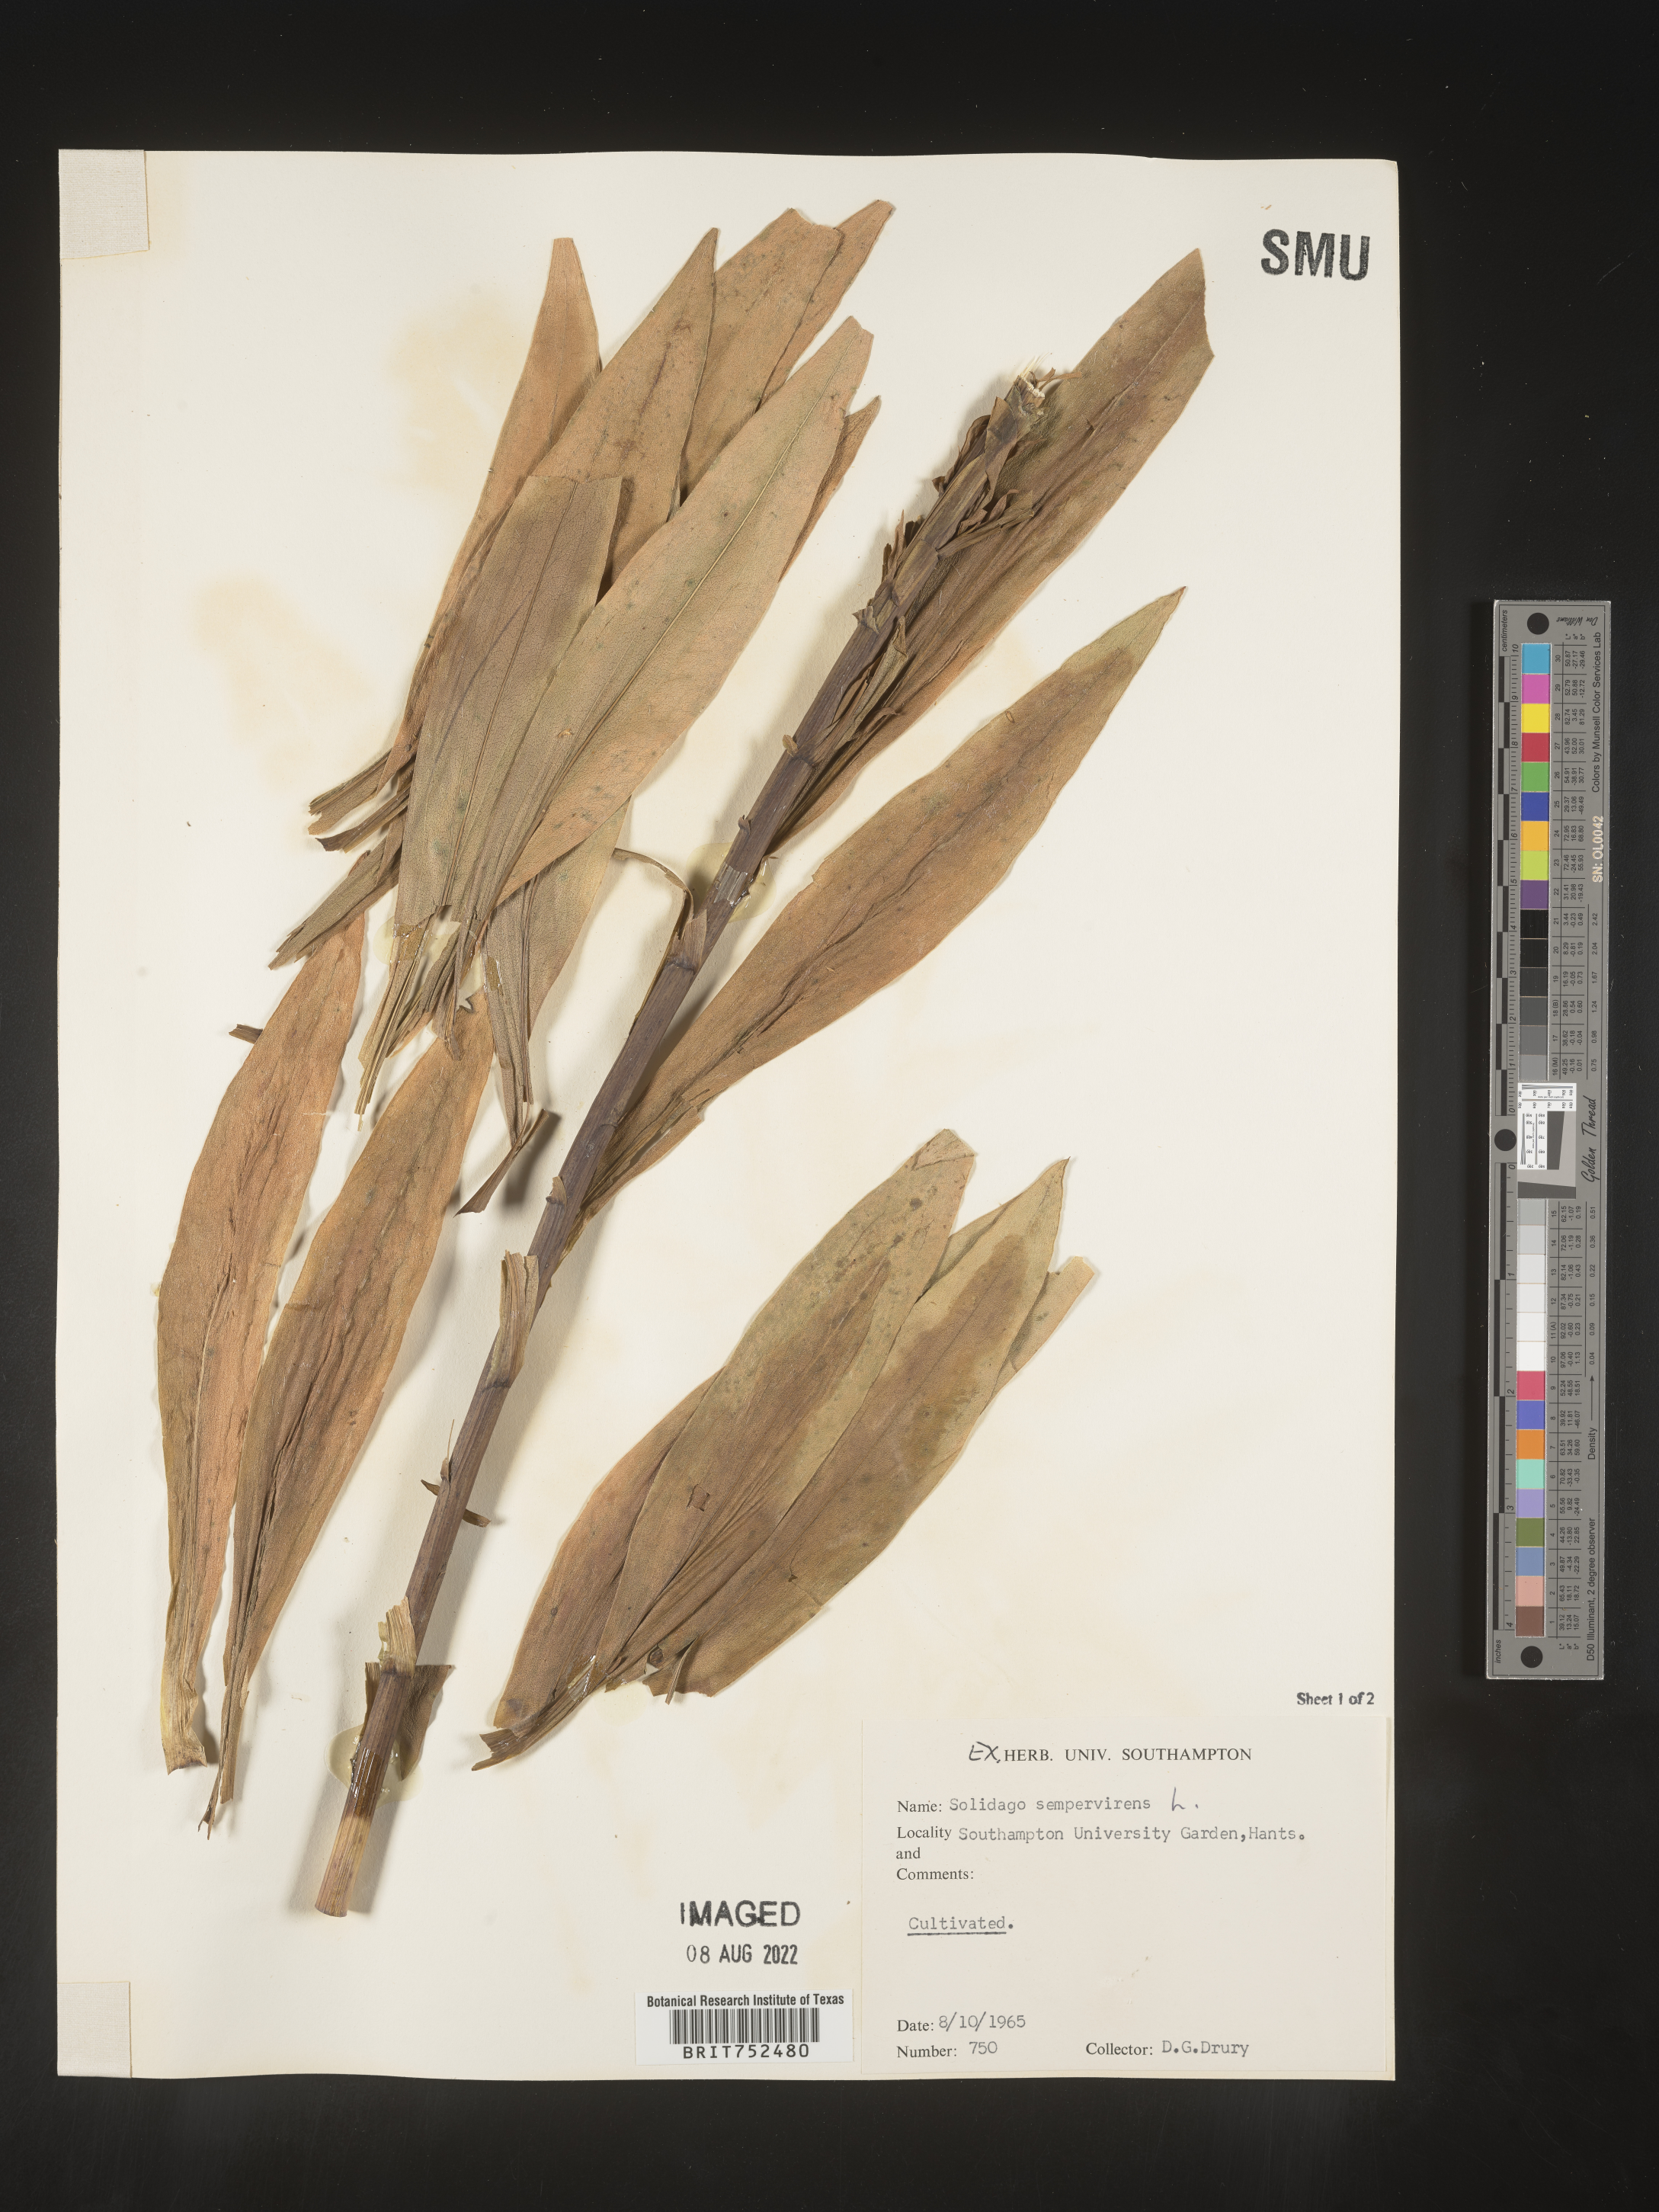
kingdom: Plantae
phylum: Tracheophyta
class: Magnoliopsida
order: Asterales
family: Asteraceae
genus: Solidago
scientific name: Solidago
